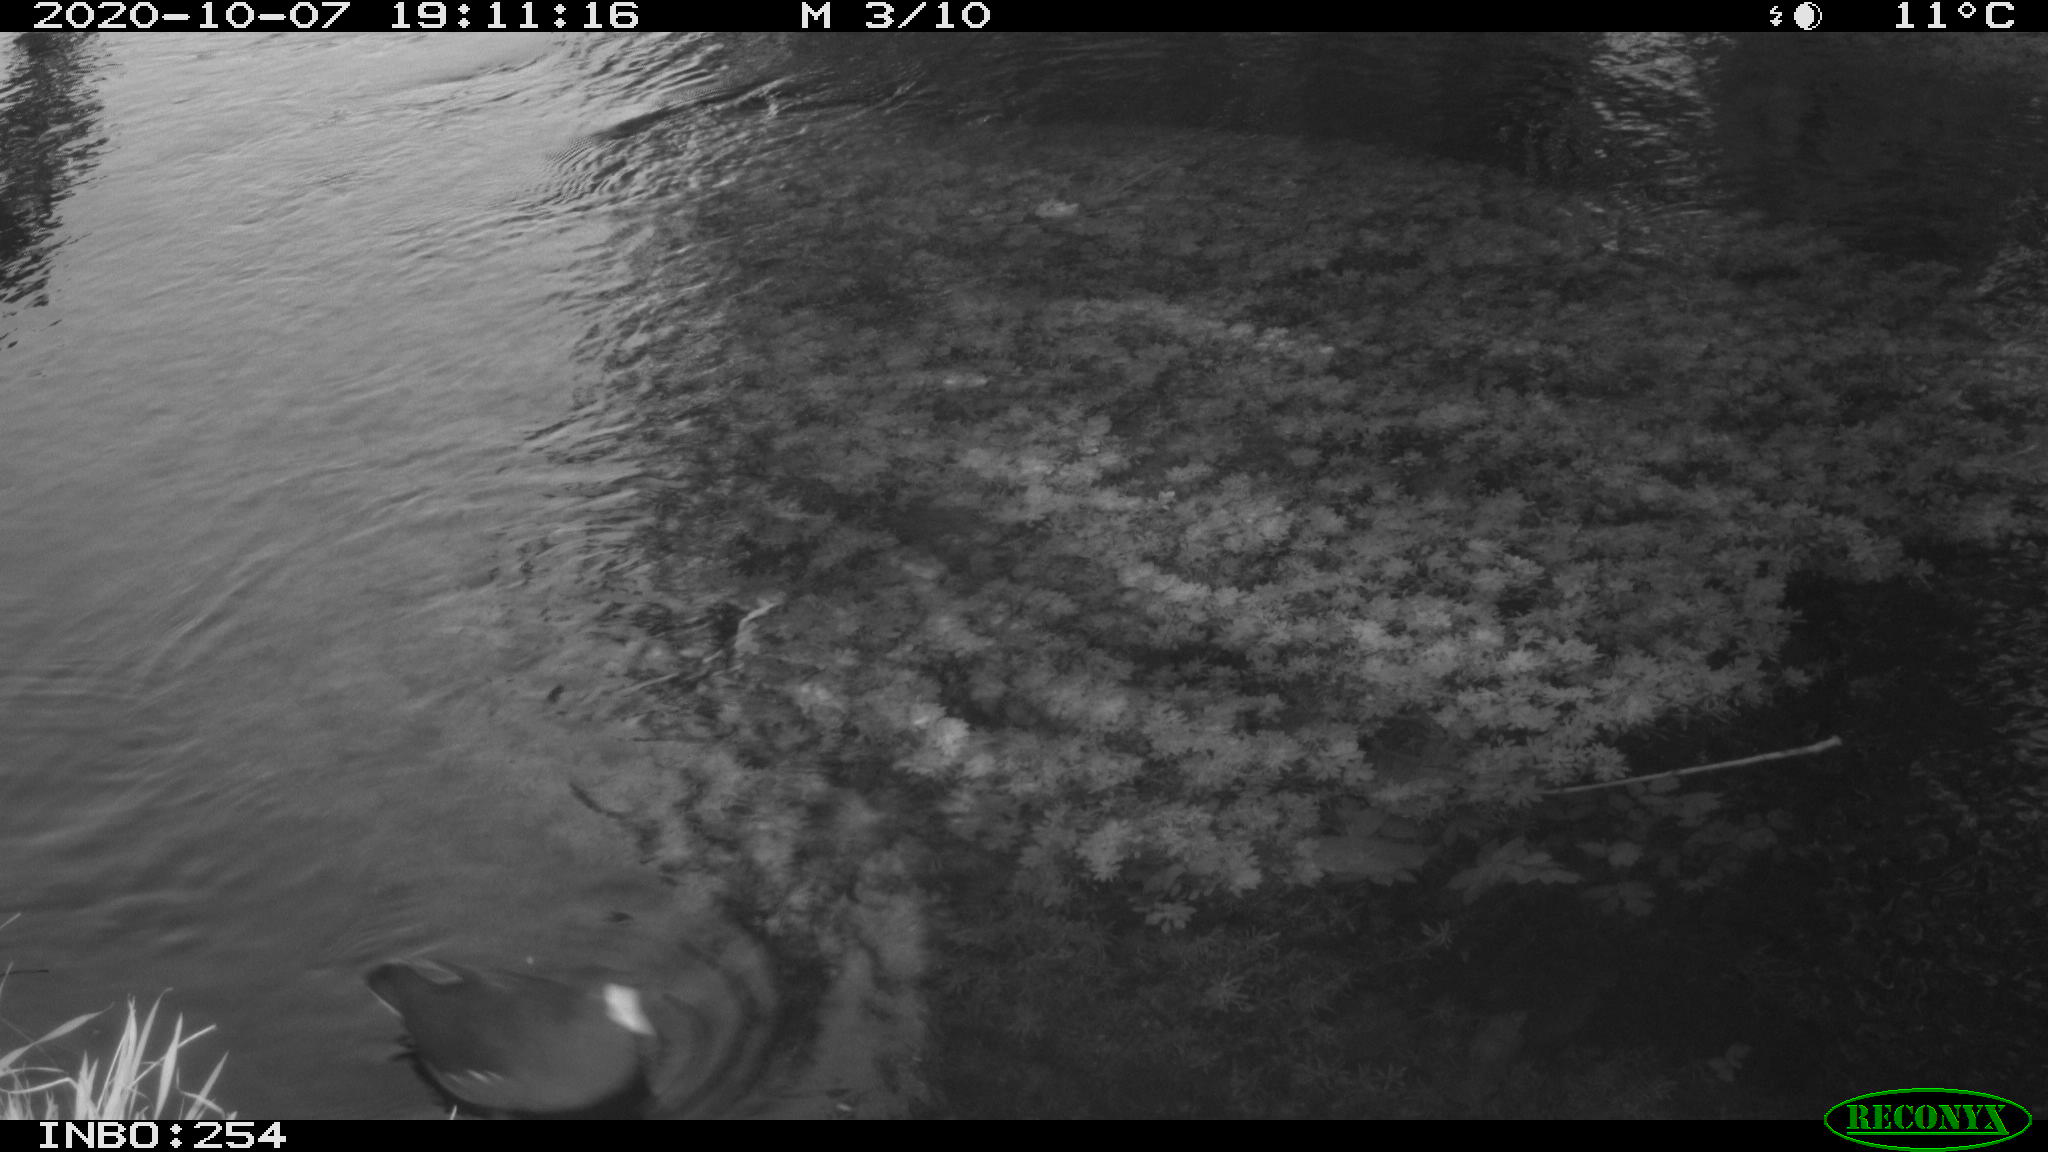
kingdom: Animalia
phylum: Chordata
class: Aves
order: Gruiformes
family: Rallidae
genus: Gallinula
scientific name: Gallinula chloropus
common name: Common moorhen
